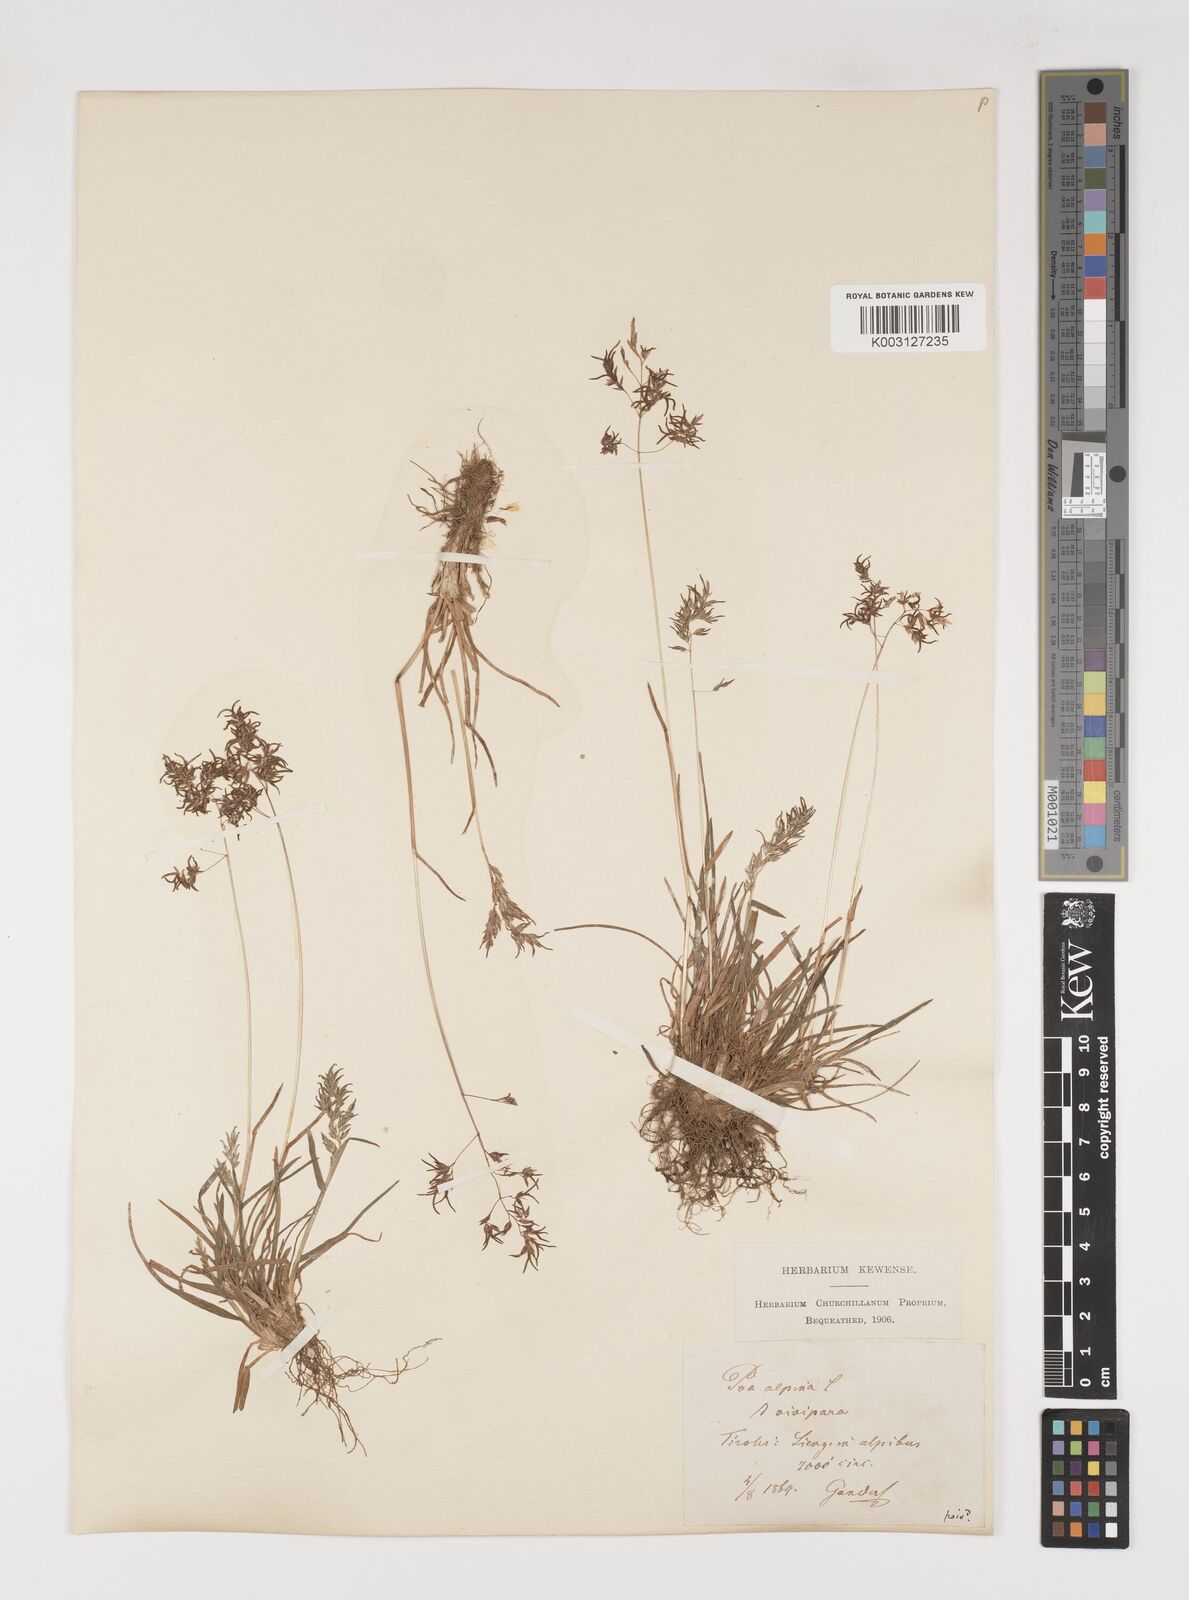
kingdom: Plantae
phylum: Tracheophyta
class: Liliopsida
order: Poales
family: Poaceae
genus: Poa
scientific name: Poa alpina
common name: Alpine bluegrass
